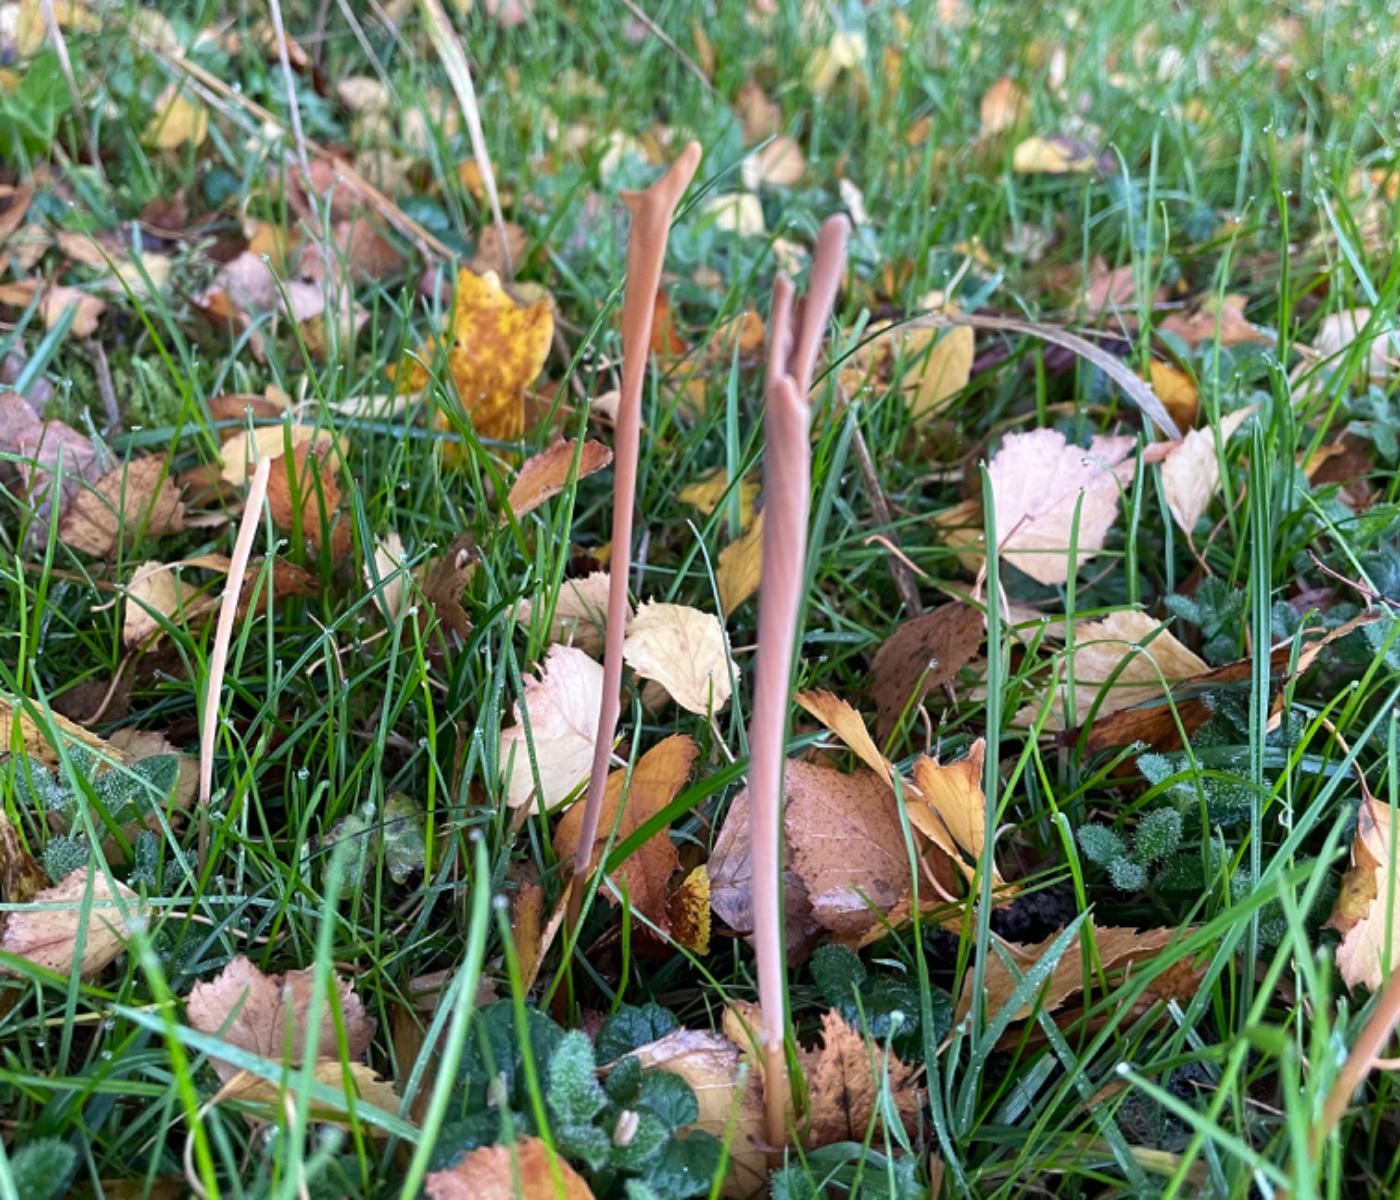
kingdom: Fungi
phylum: Basidiomycota
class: Agaricomycetes
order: Agaricales
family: Typhulaceae
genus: Typhula
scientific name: Typhula fistulosa
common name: pibet rørkølle
